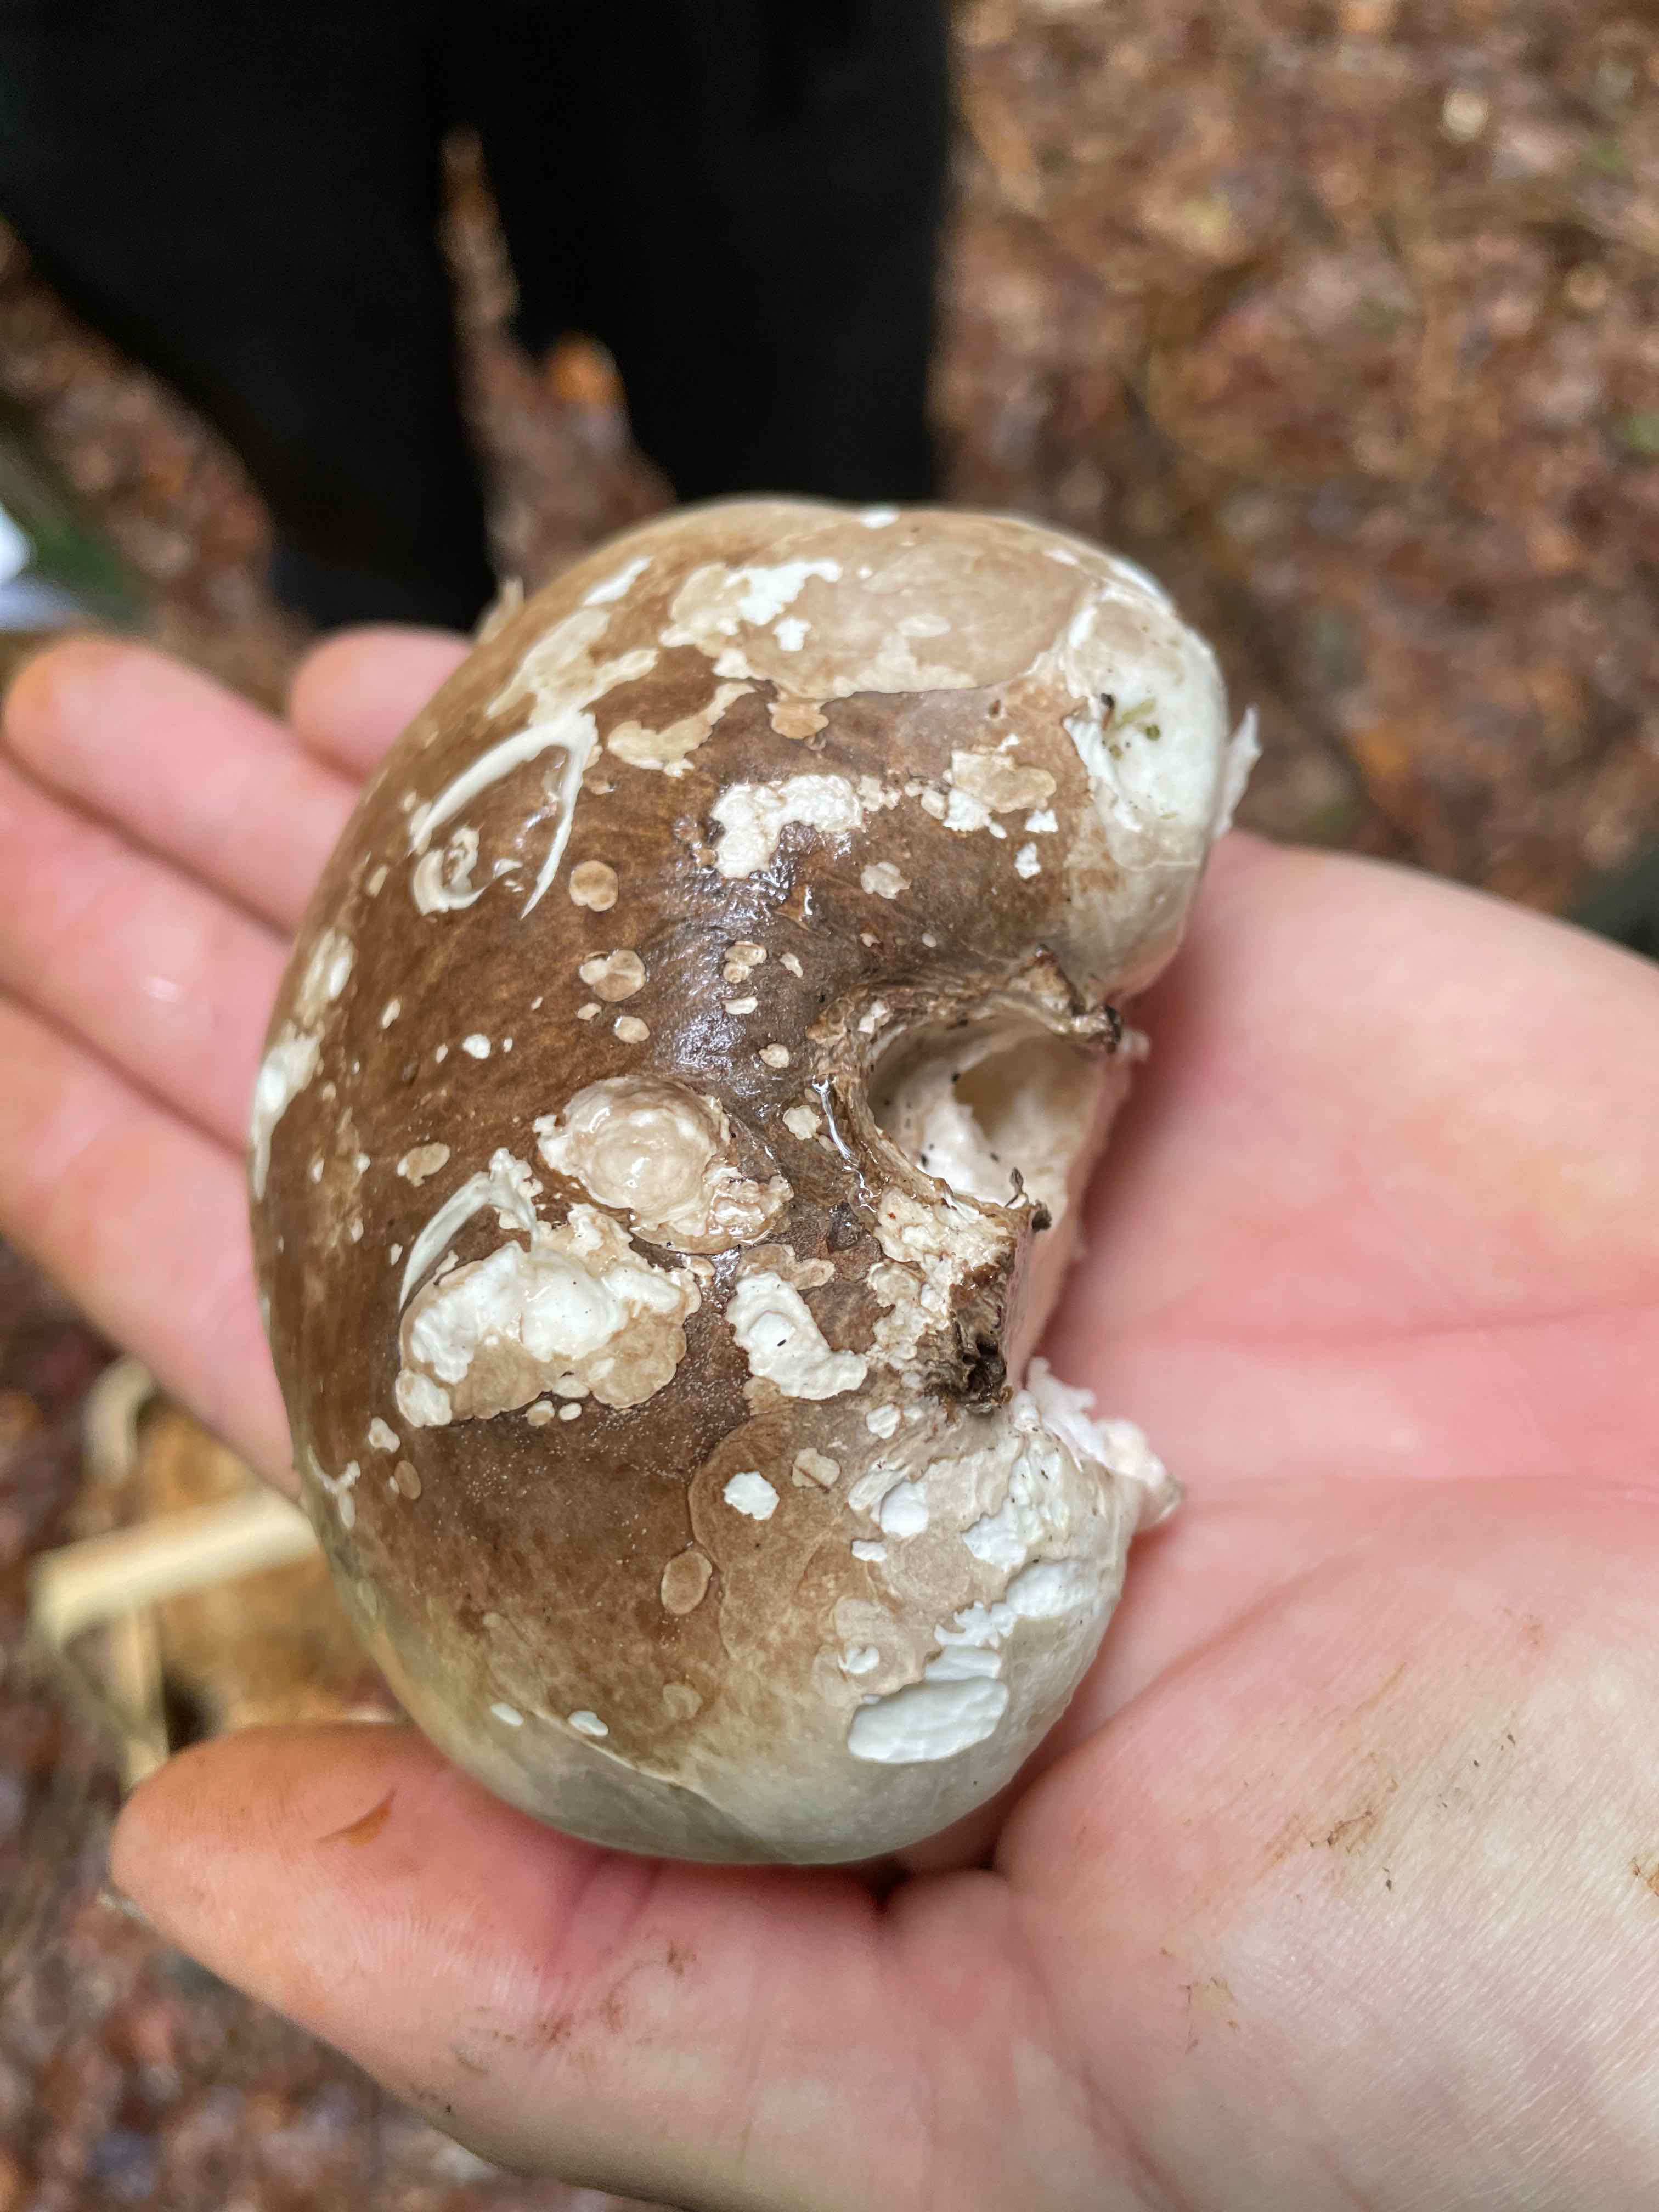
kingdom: Fungi
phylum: Basidiomycota
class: Agaricomycetes
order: Polyporales
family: Fomitopsidaceae
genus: Fomitopsis
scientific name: Fomitopsis betulina
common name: birkeporesvamp
